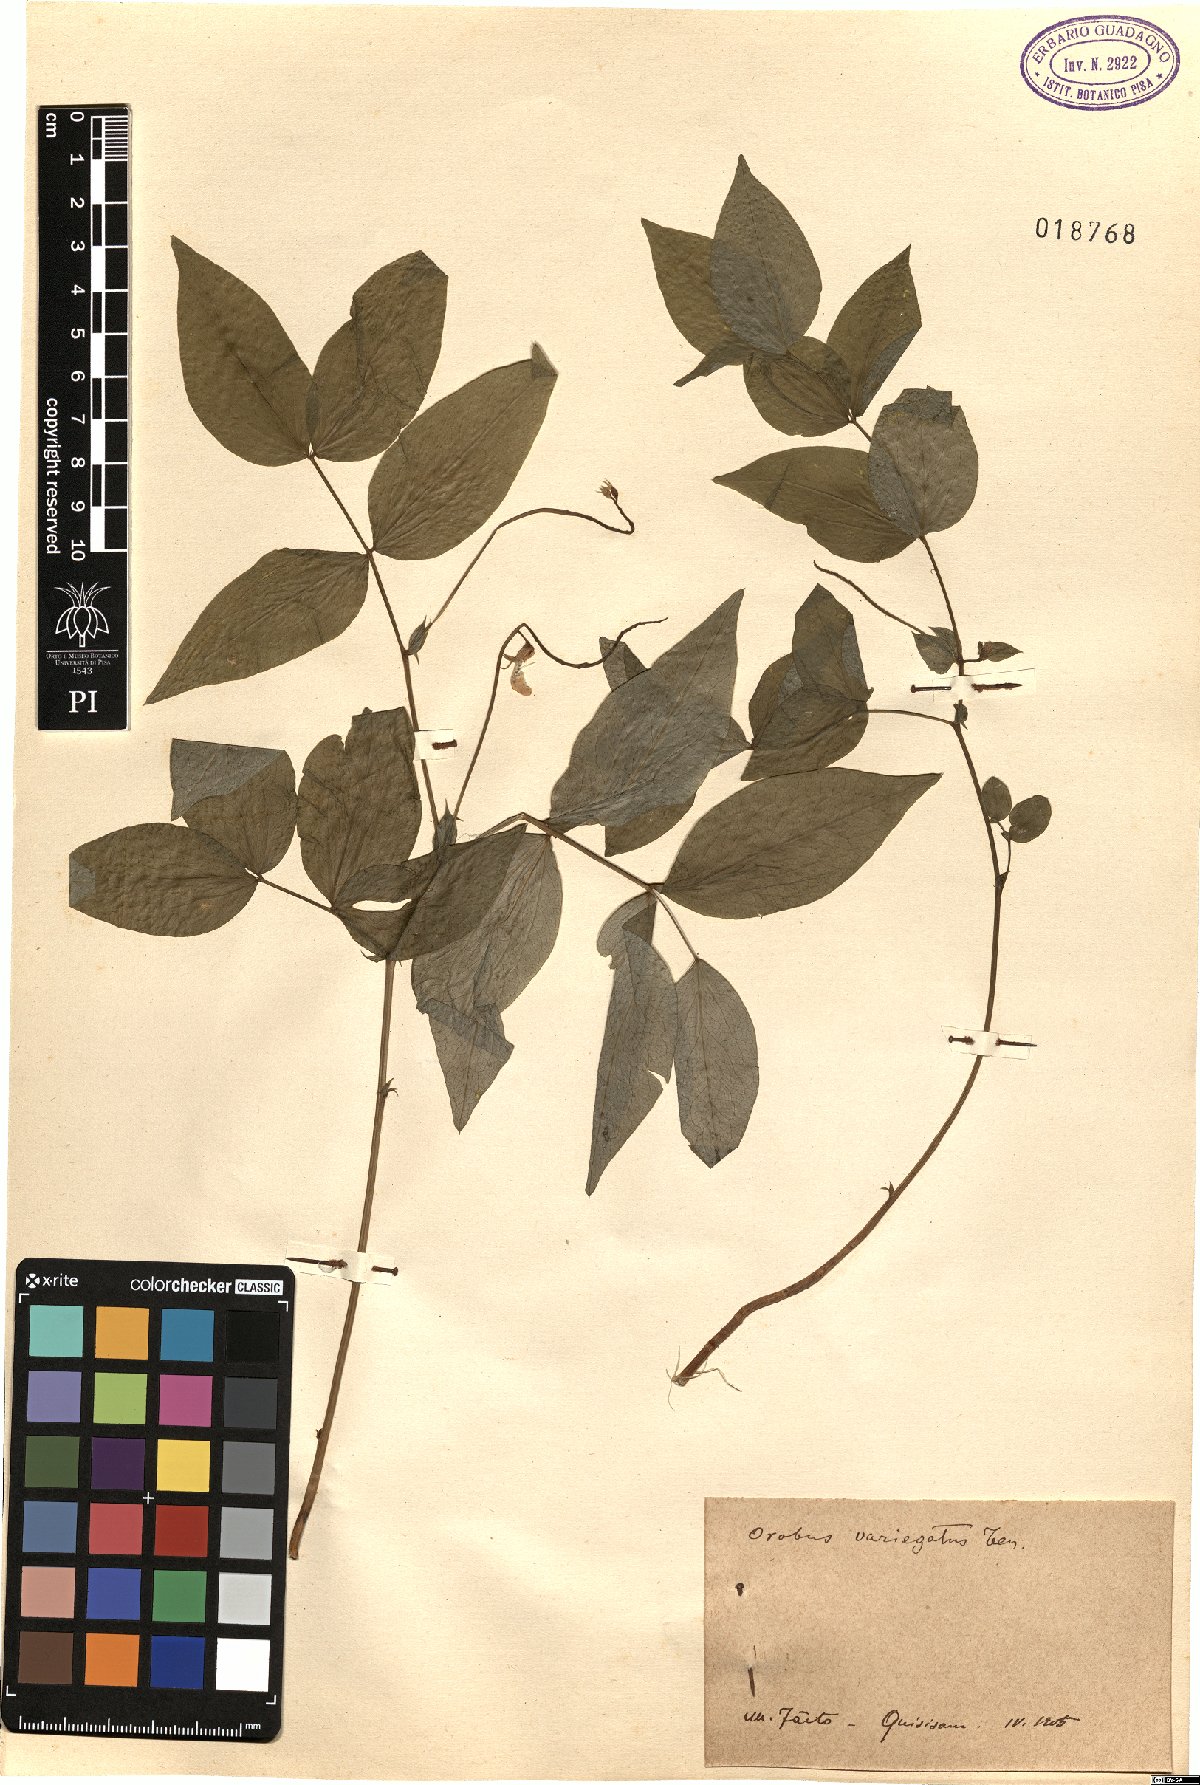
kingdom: Plantae
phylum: Tracheophyta
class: Magnoliopsida
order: Fabales
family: Fabaceae
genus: Lathyrus
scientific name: Lathyrus venetus
